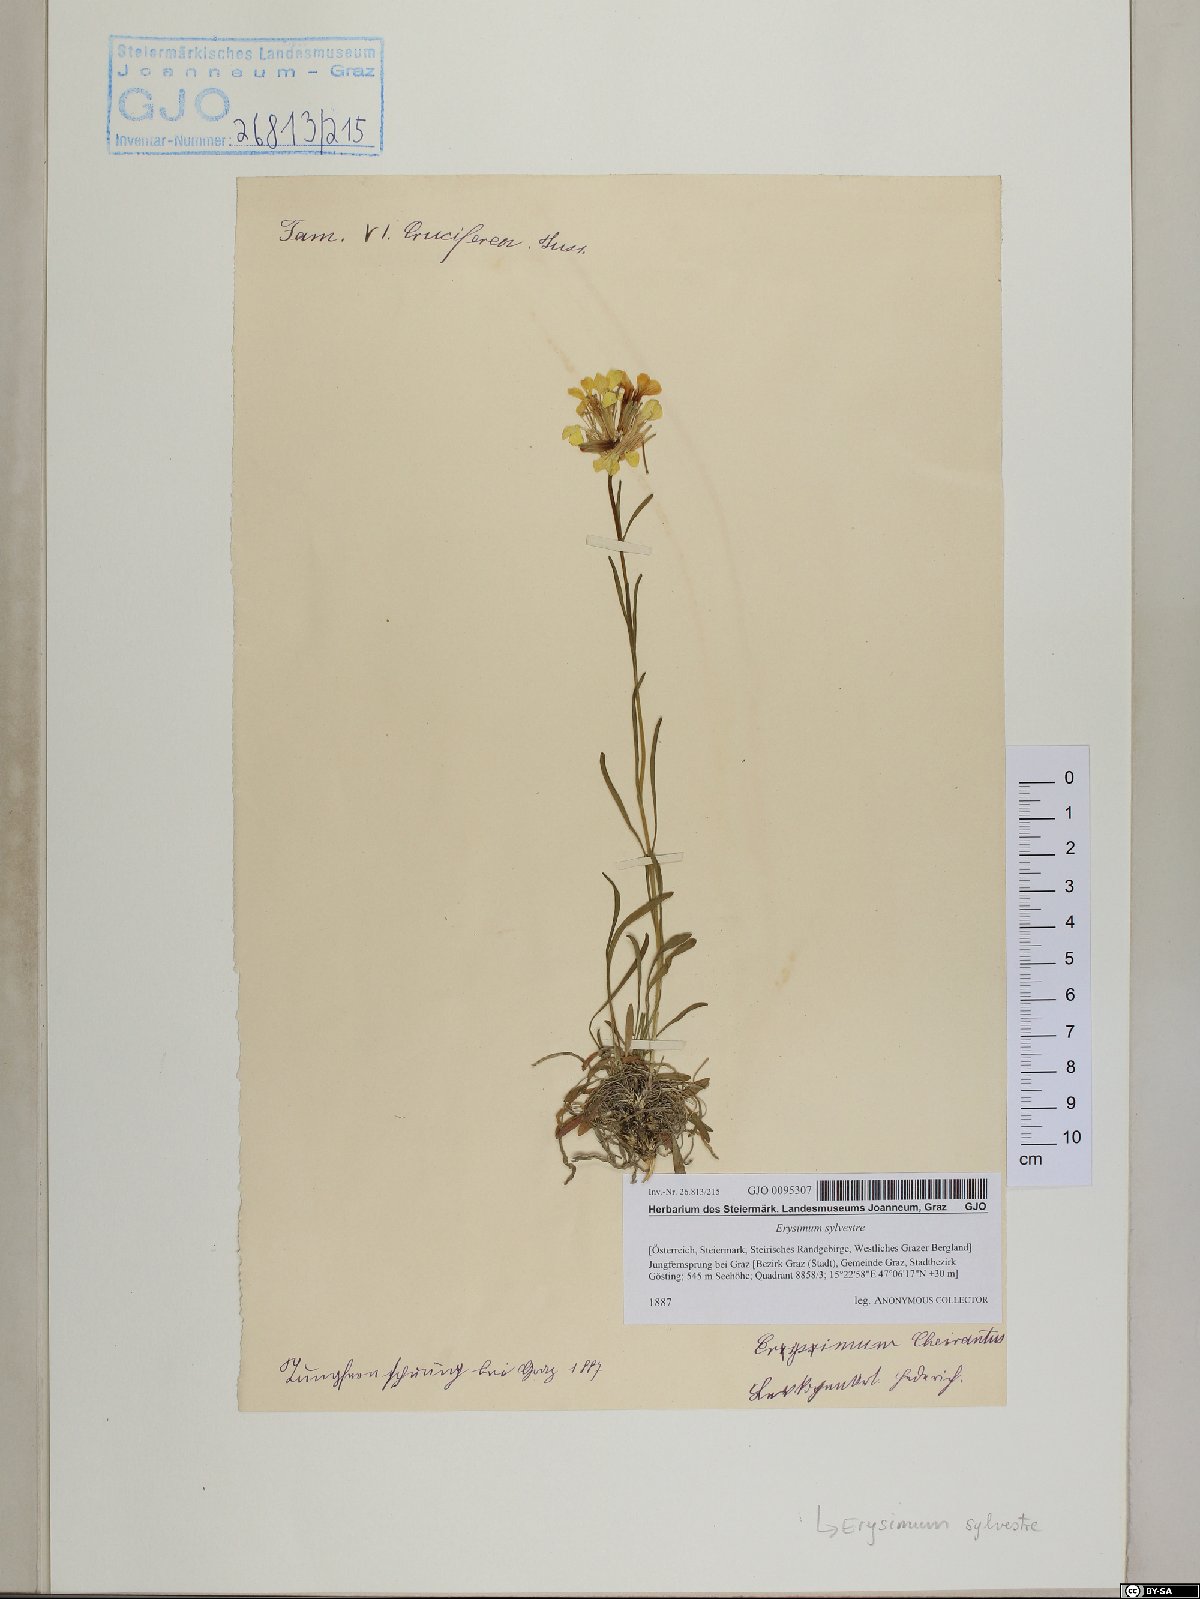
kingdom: Plantae
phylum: Tracheophyta
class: Magnoliopsida
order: Brassicales
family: Brassicaceae
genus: Erysimum
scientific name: Erysimum sylvestre
